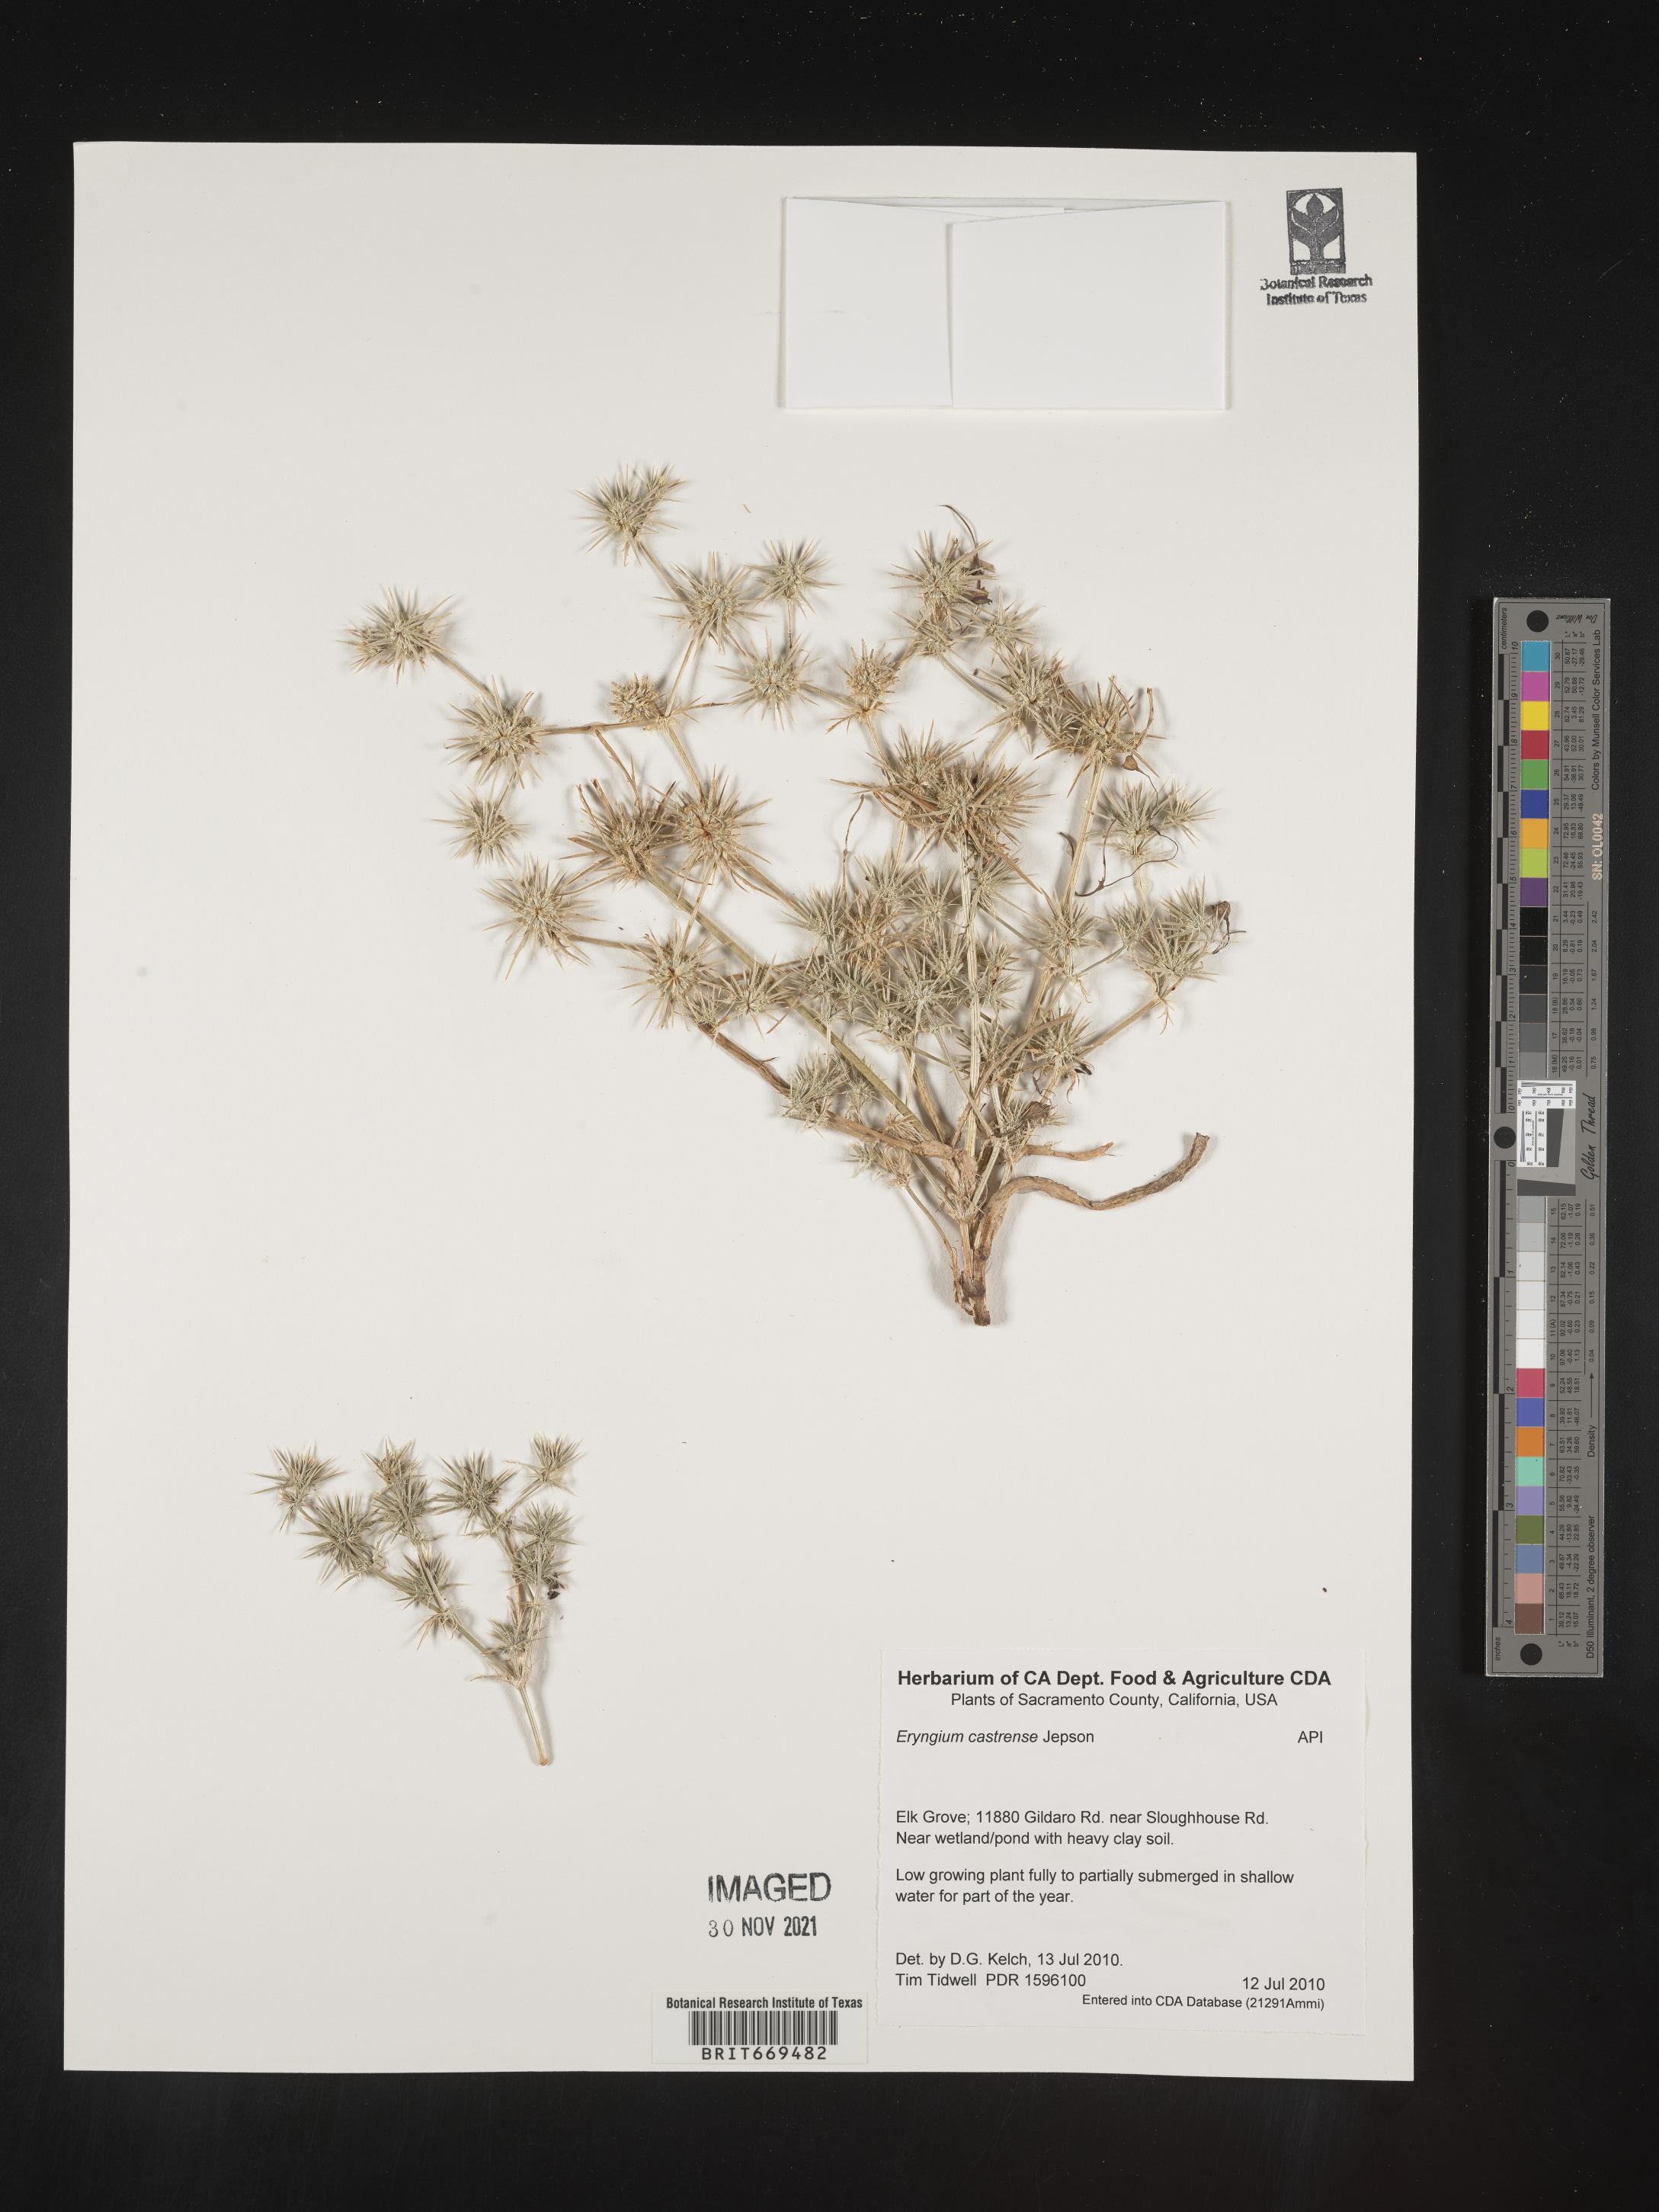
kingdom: Plantae
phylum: Tracheophyta
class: Magnoliopsida
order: Apiales
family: Apiaceae
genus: Eryngium
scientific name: Eryngium
